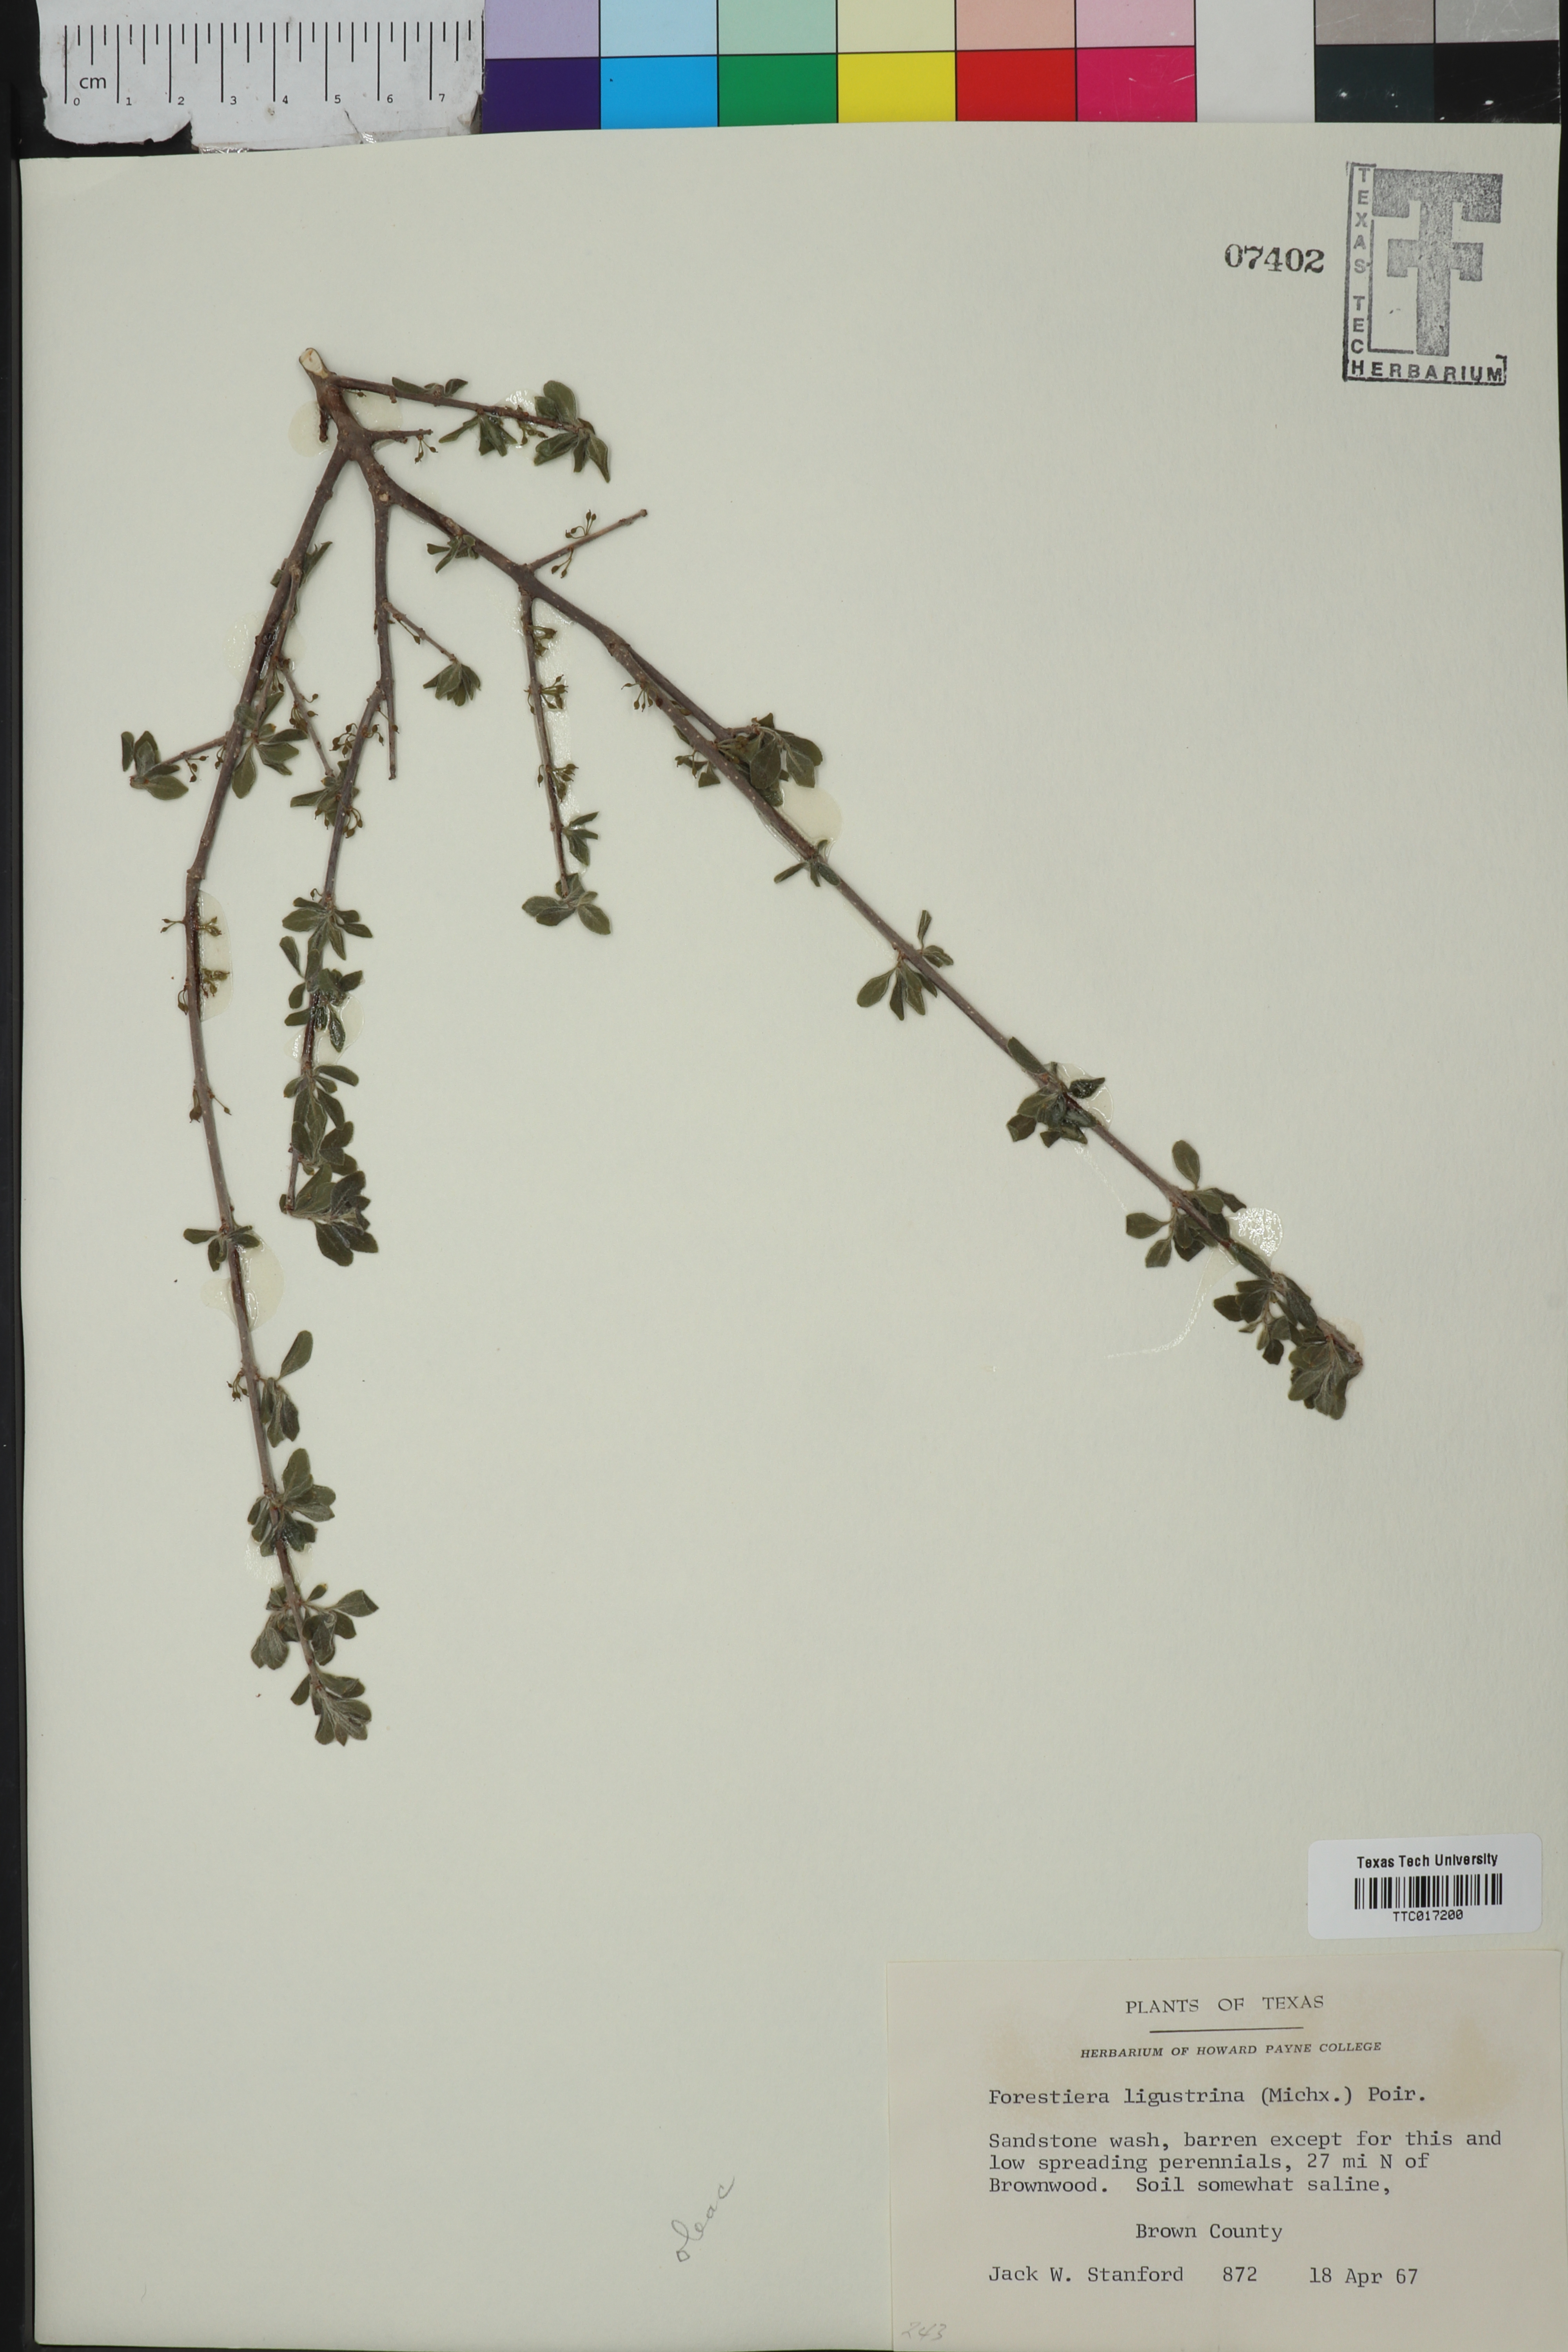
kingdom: Plantae
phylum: Tracheophyta
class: Magnoliopsida
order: Lamiales
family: Oleaceae
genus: Forestiera
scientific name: Forestiera ligustrina
